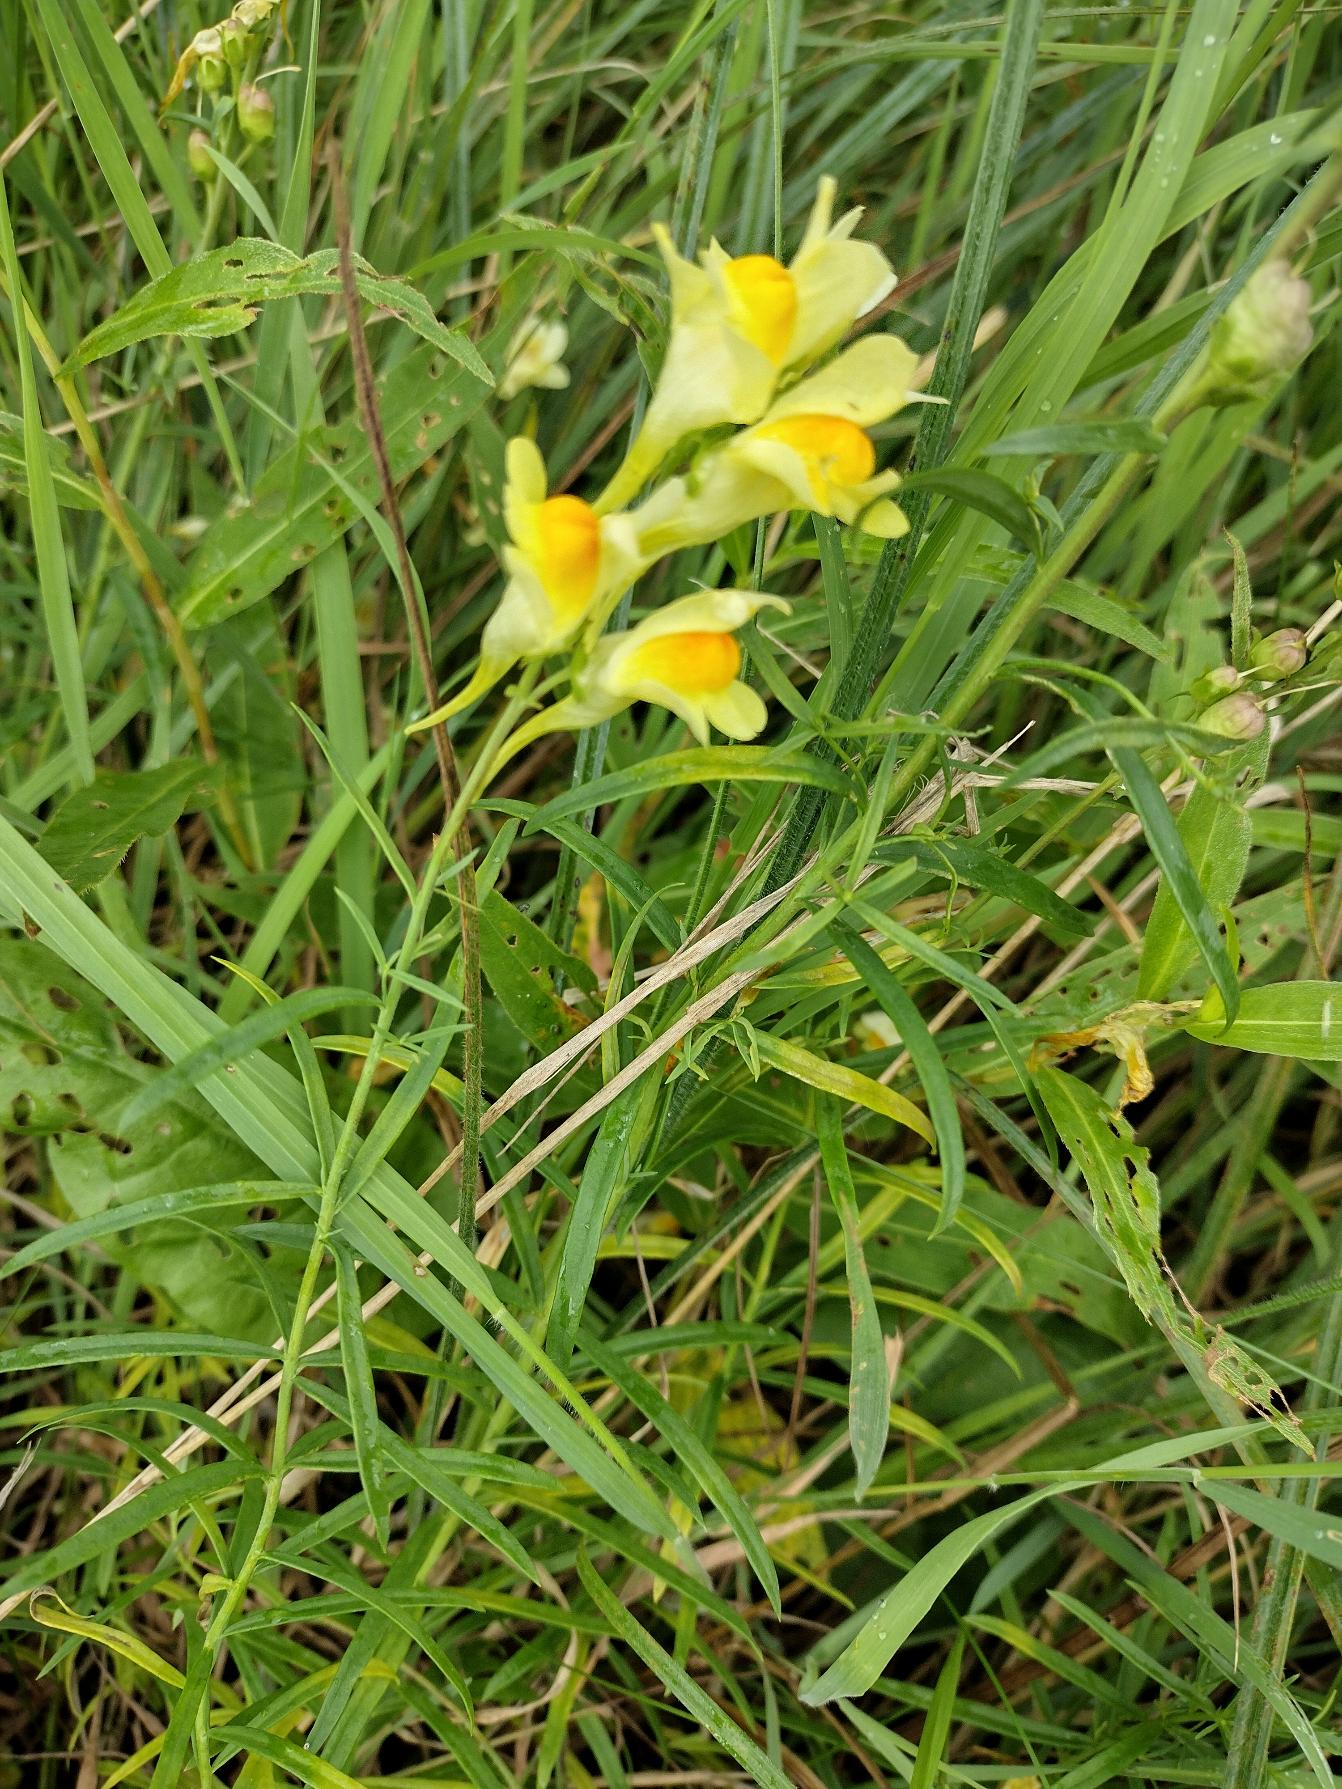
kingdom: Plantae
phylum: Tracheophyta
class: Magnoliopsida
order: Lamiales
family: Plantaginaceae
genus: Linaria
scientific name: Linaria vulgaris
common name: Almindelig torskemund
